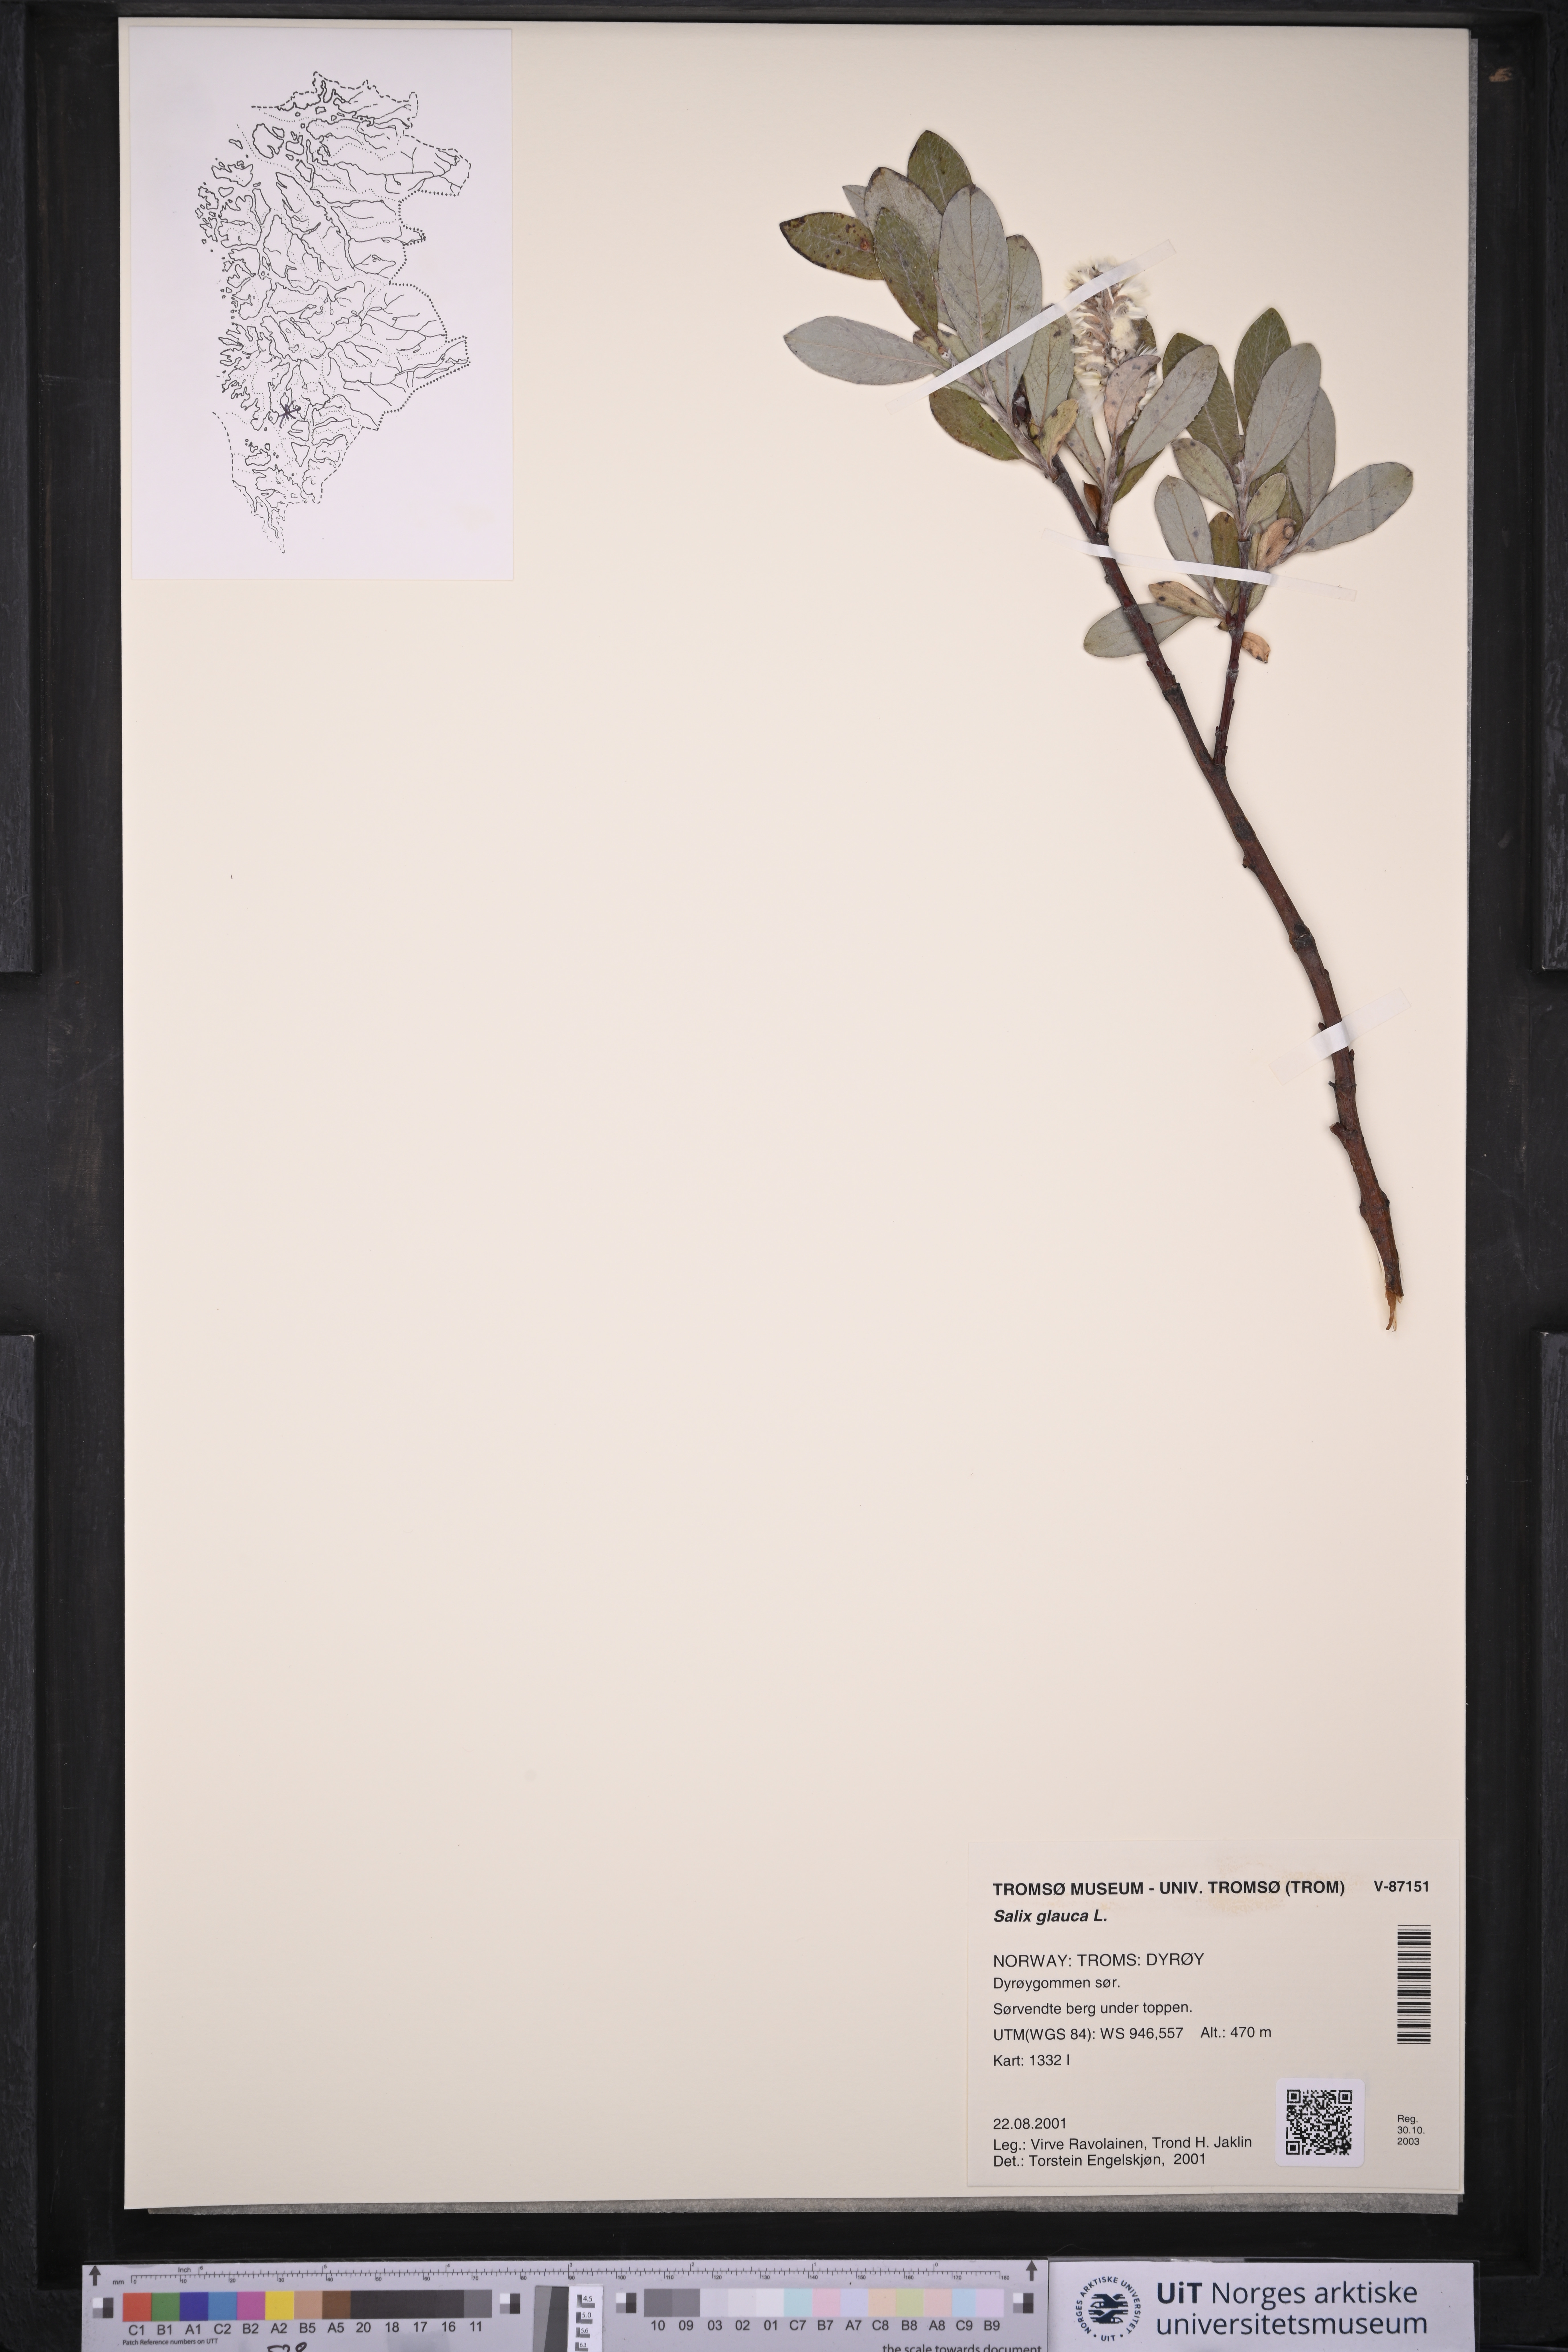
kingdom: Plantae
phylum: Tracheophyta
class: Magnoliopsida
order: Malpighiales
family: Salicaceae
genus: Salix
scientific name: Salix glauca
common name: Glaucous willow
